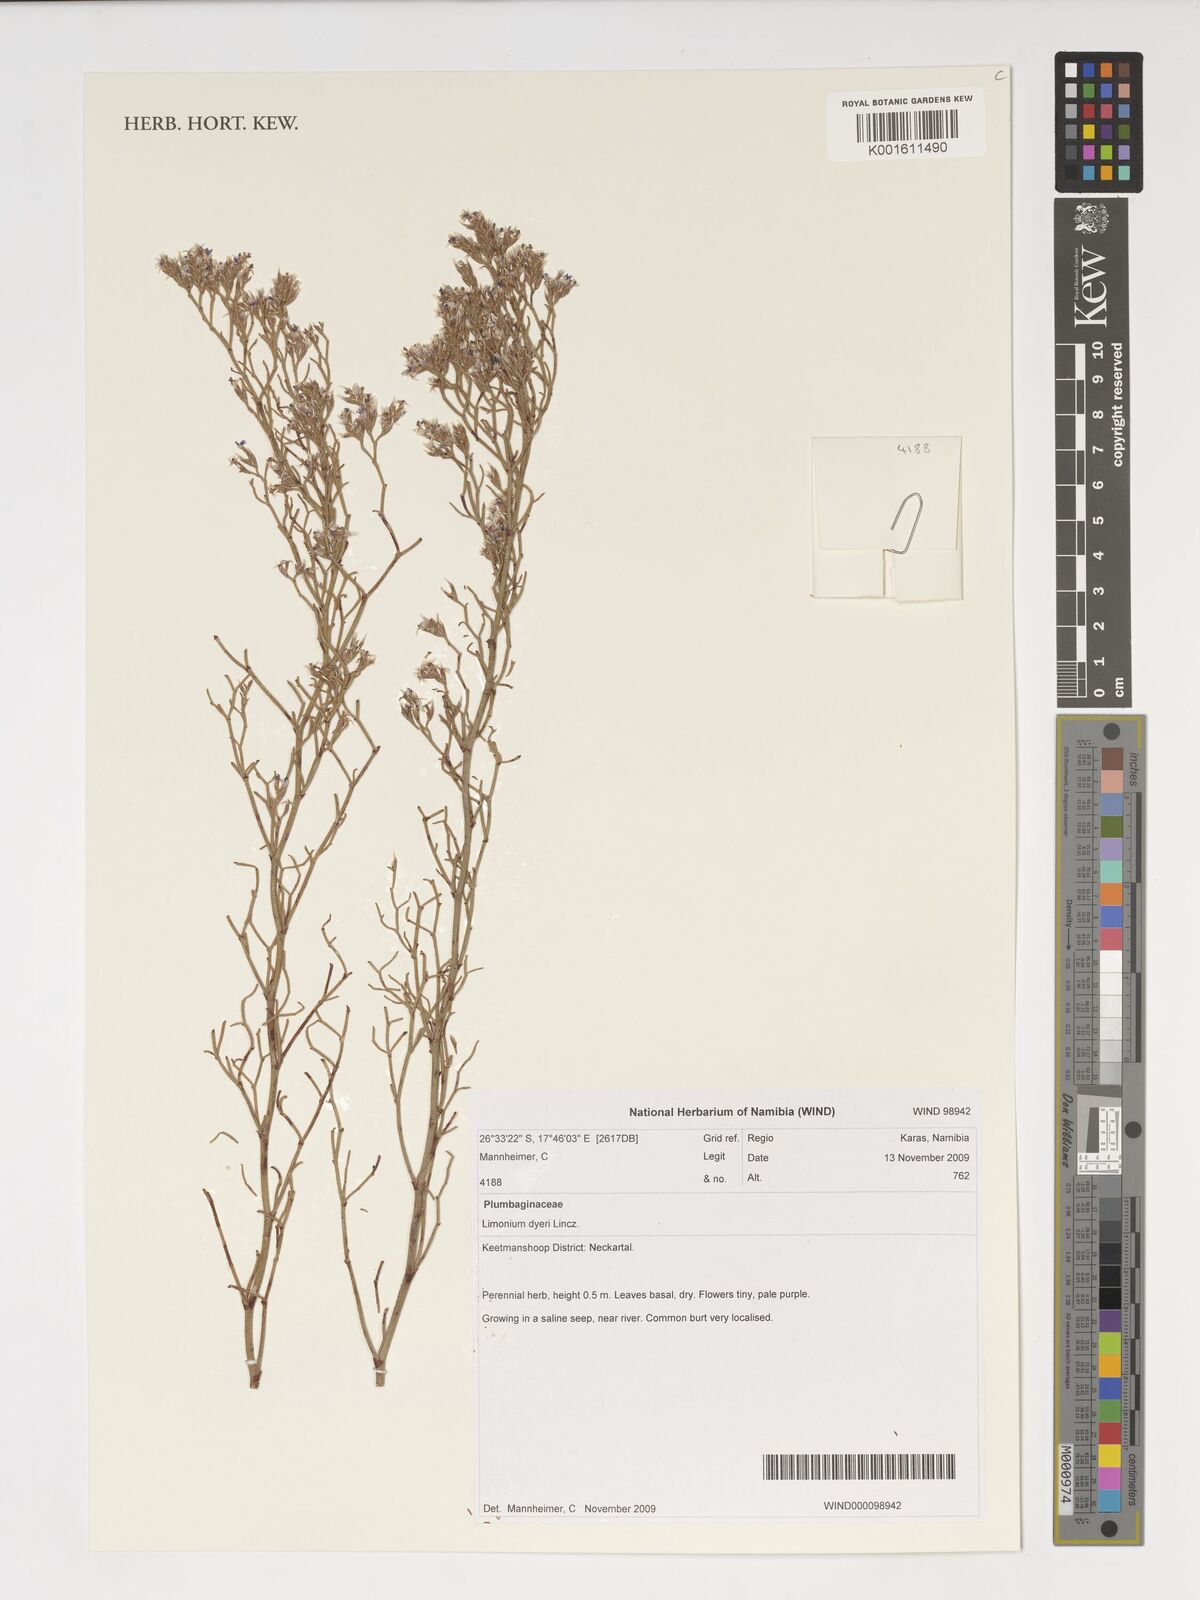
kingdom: Plantae
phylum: Tracheophyta
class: Magnoliopsida
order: Caryophyllales
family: Plumbaginaceae
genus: Limonium
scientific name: Limonium dyeri
